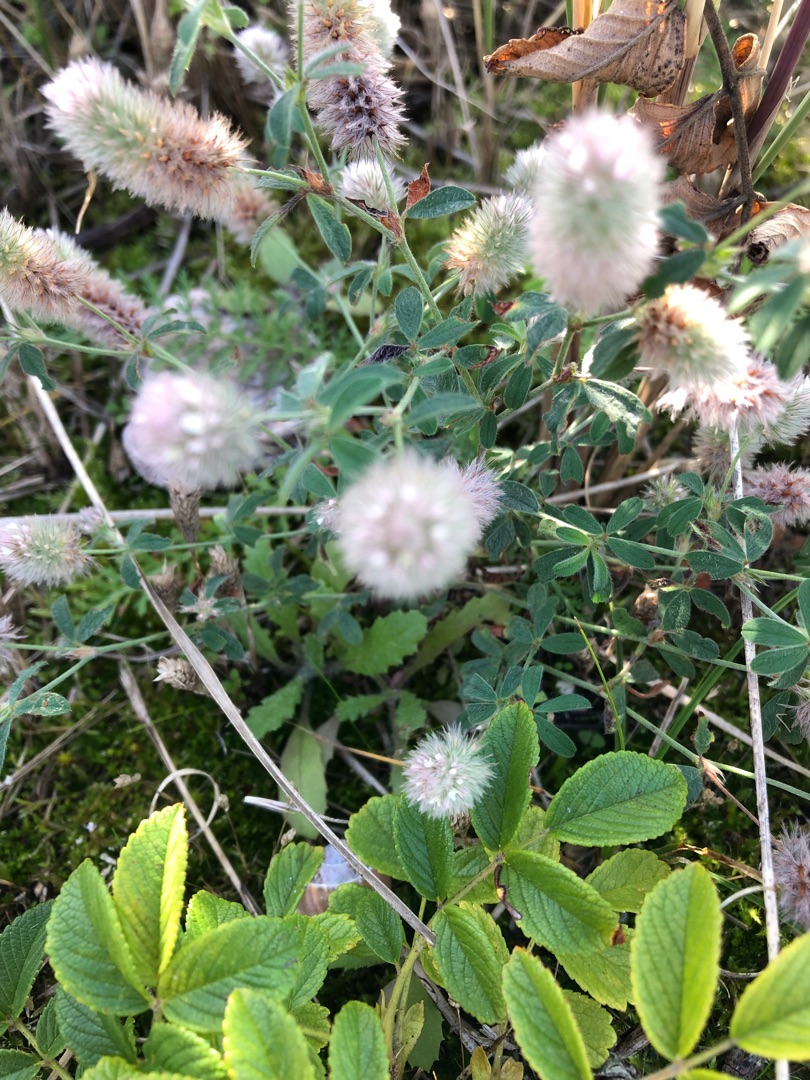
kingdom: Plantae
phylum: Tracheophyta
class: Magnoliopsida
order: Fabales
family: Fabaceae
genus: Trifolium
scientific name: Trifolium arvense
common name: Hare-kløver
